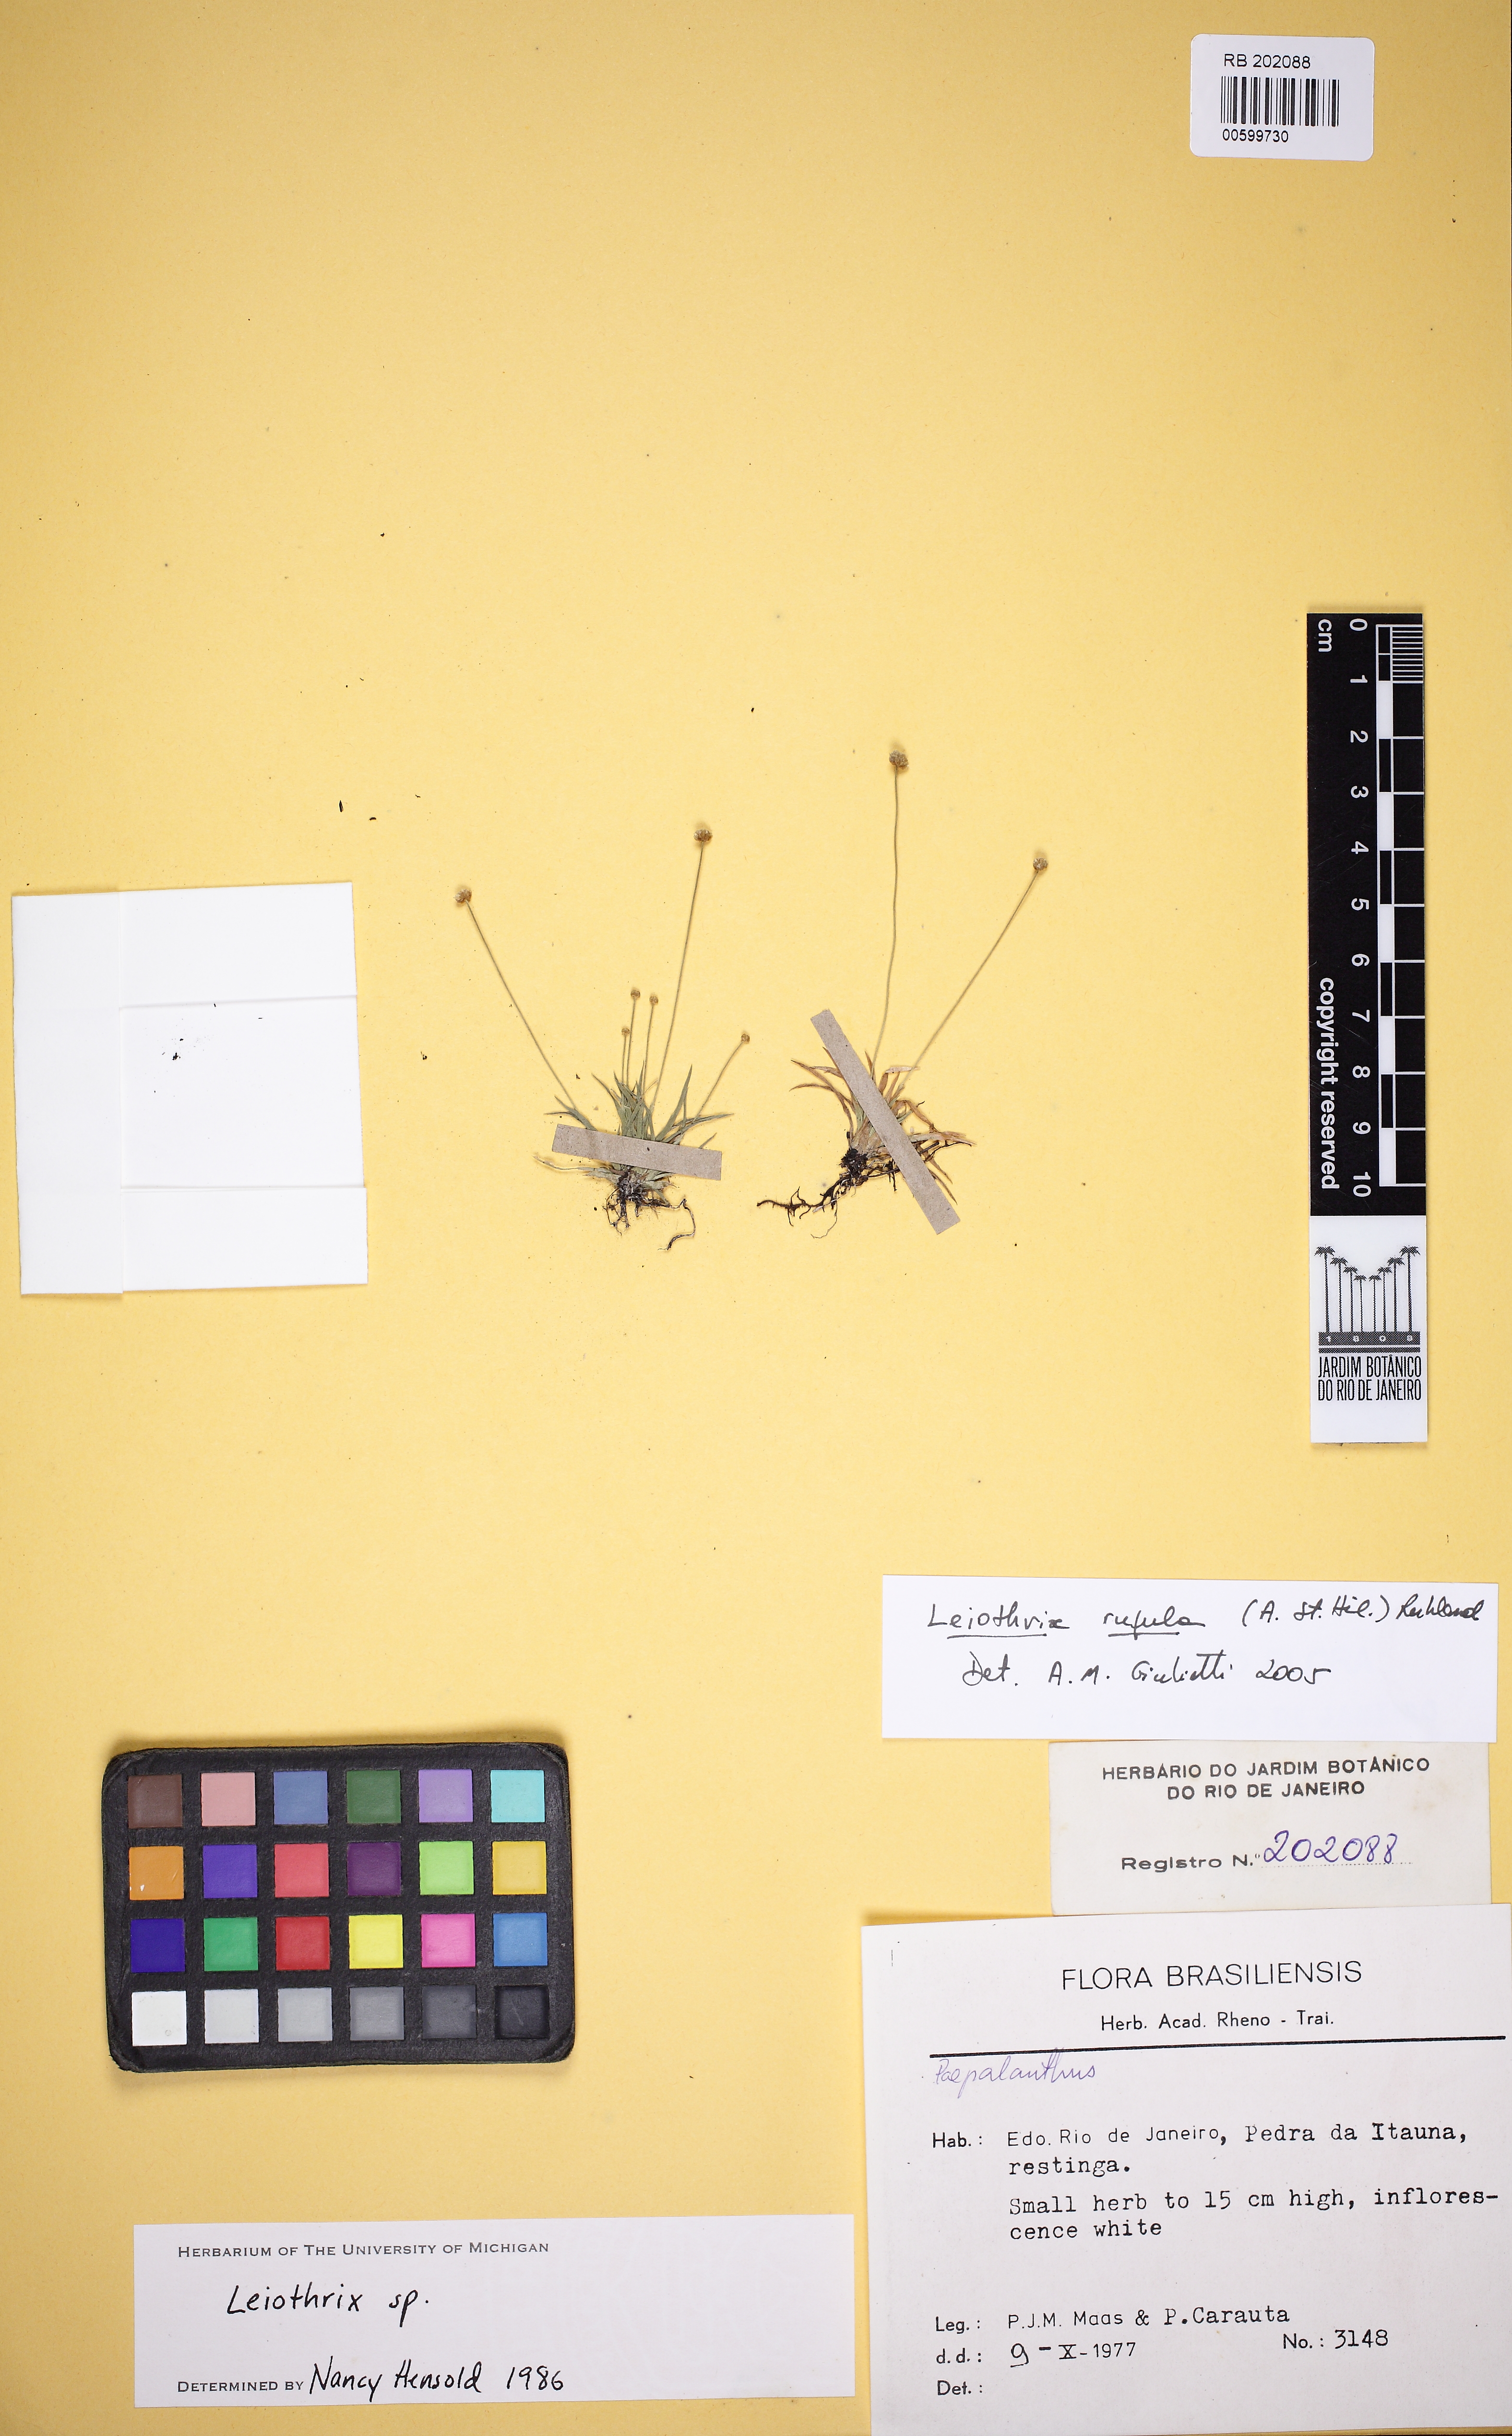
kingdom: Plantae
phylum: Tracheophyta
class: Liliopsida
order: Poales
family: Eriocaulaceae
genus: Leiothrix
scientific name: Leiothrix rufula
